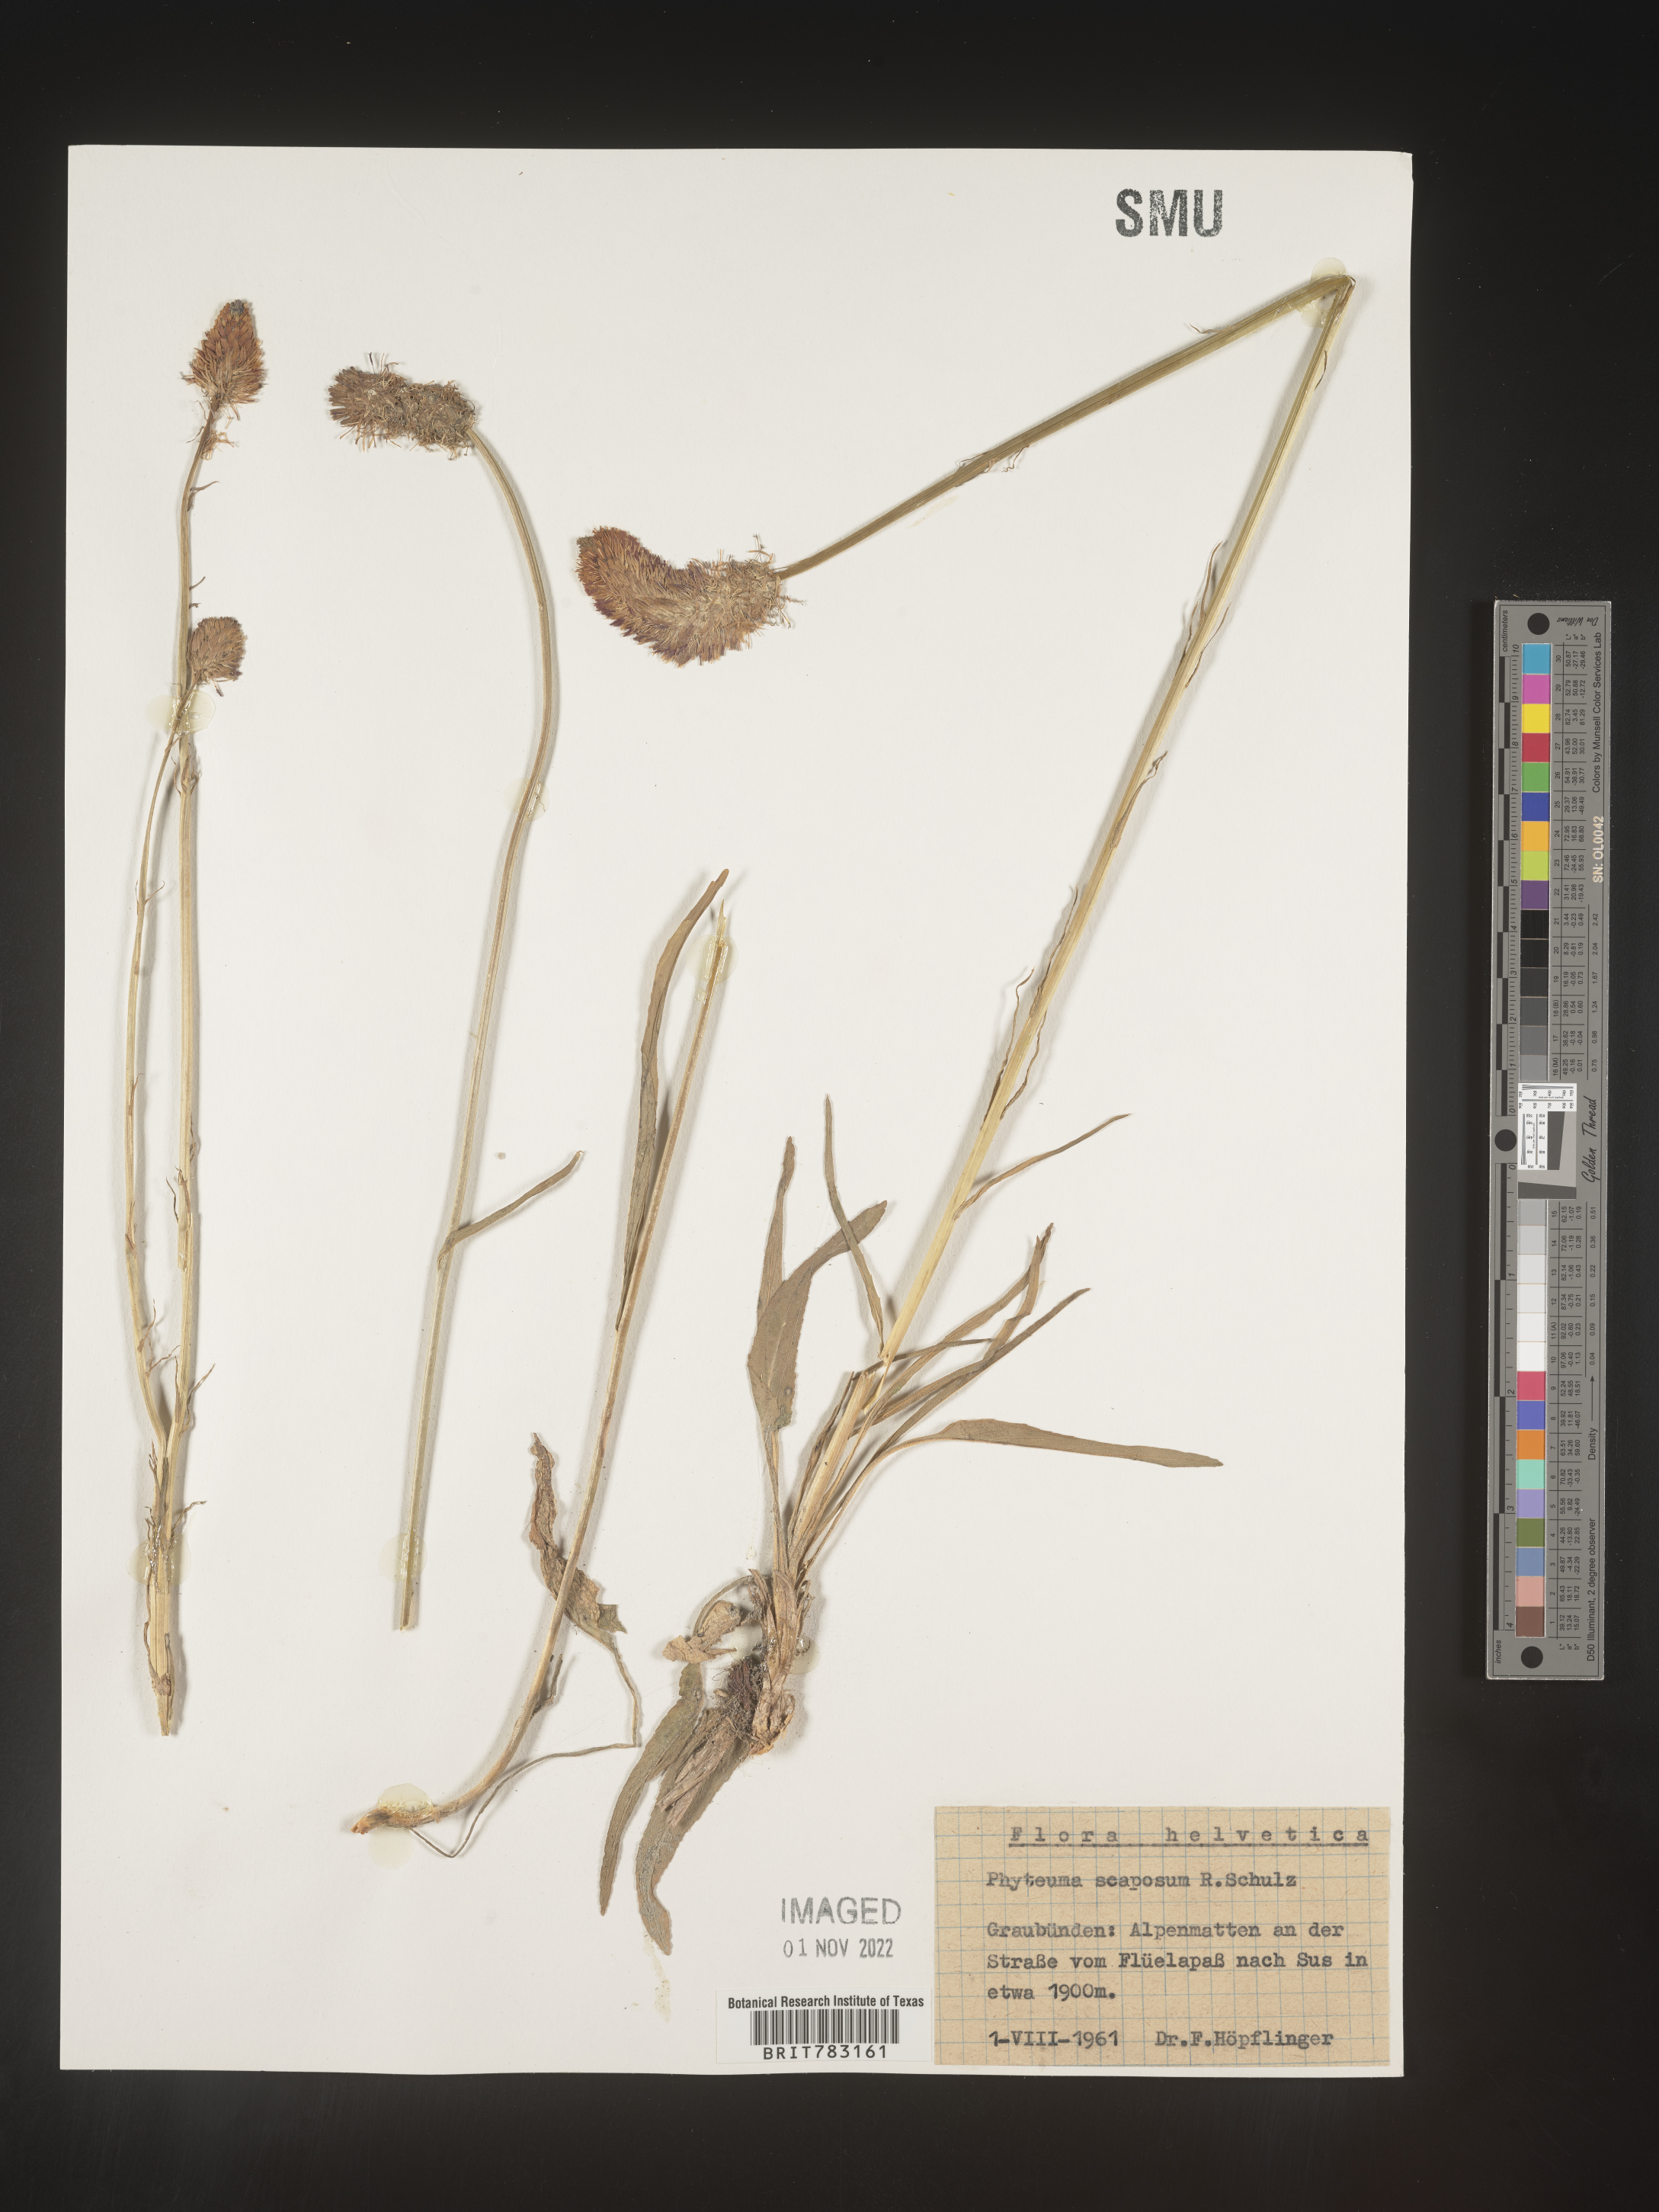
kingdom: Plantae
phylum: Tracheophyta
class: Magnoliopsida
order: Asterales
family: Campanulaceae
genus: Phyteuma
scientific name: Phyteuma
